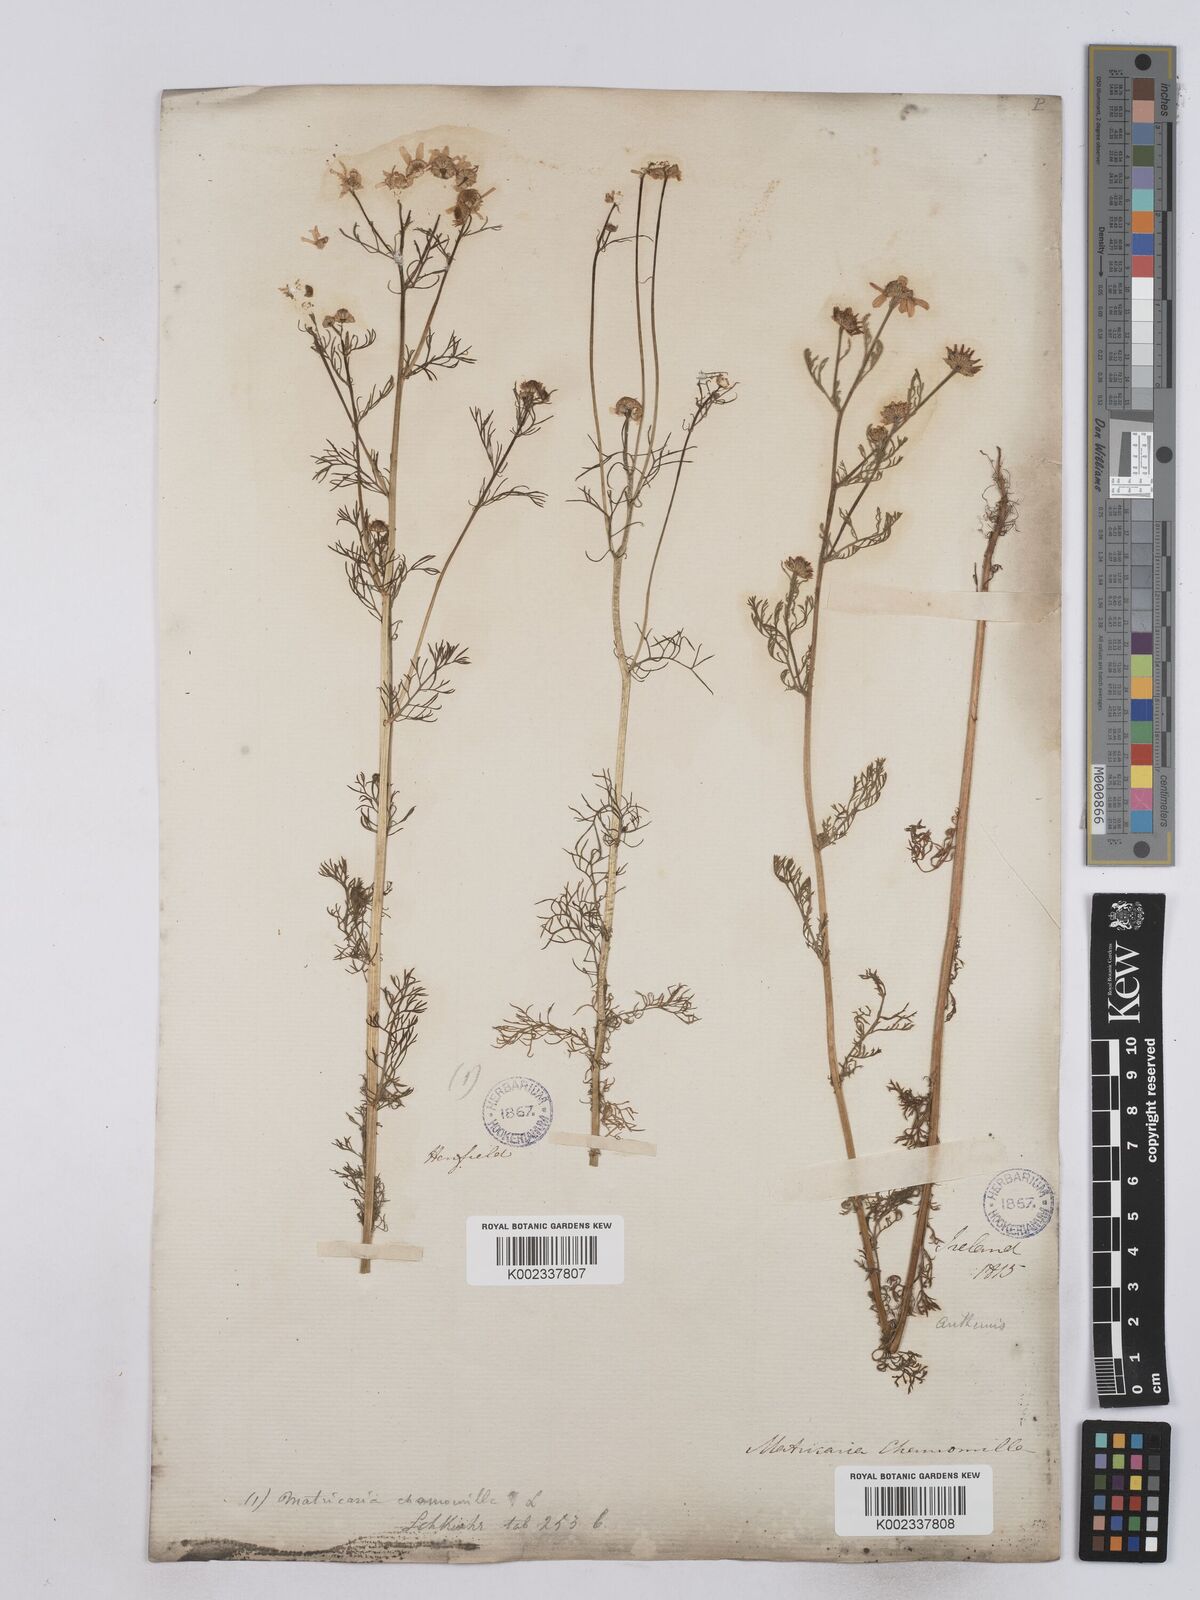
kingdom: Plantae
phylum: Tracheophyta
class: Magnoliopsida
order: Asterales
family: Asteraceae
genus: Matricaria
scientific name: Matricaria chamomilla
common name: Scented mayweed
